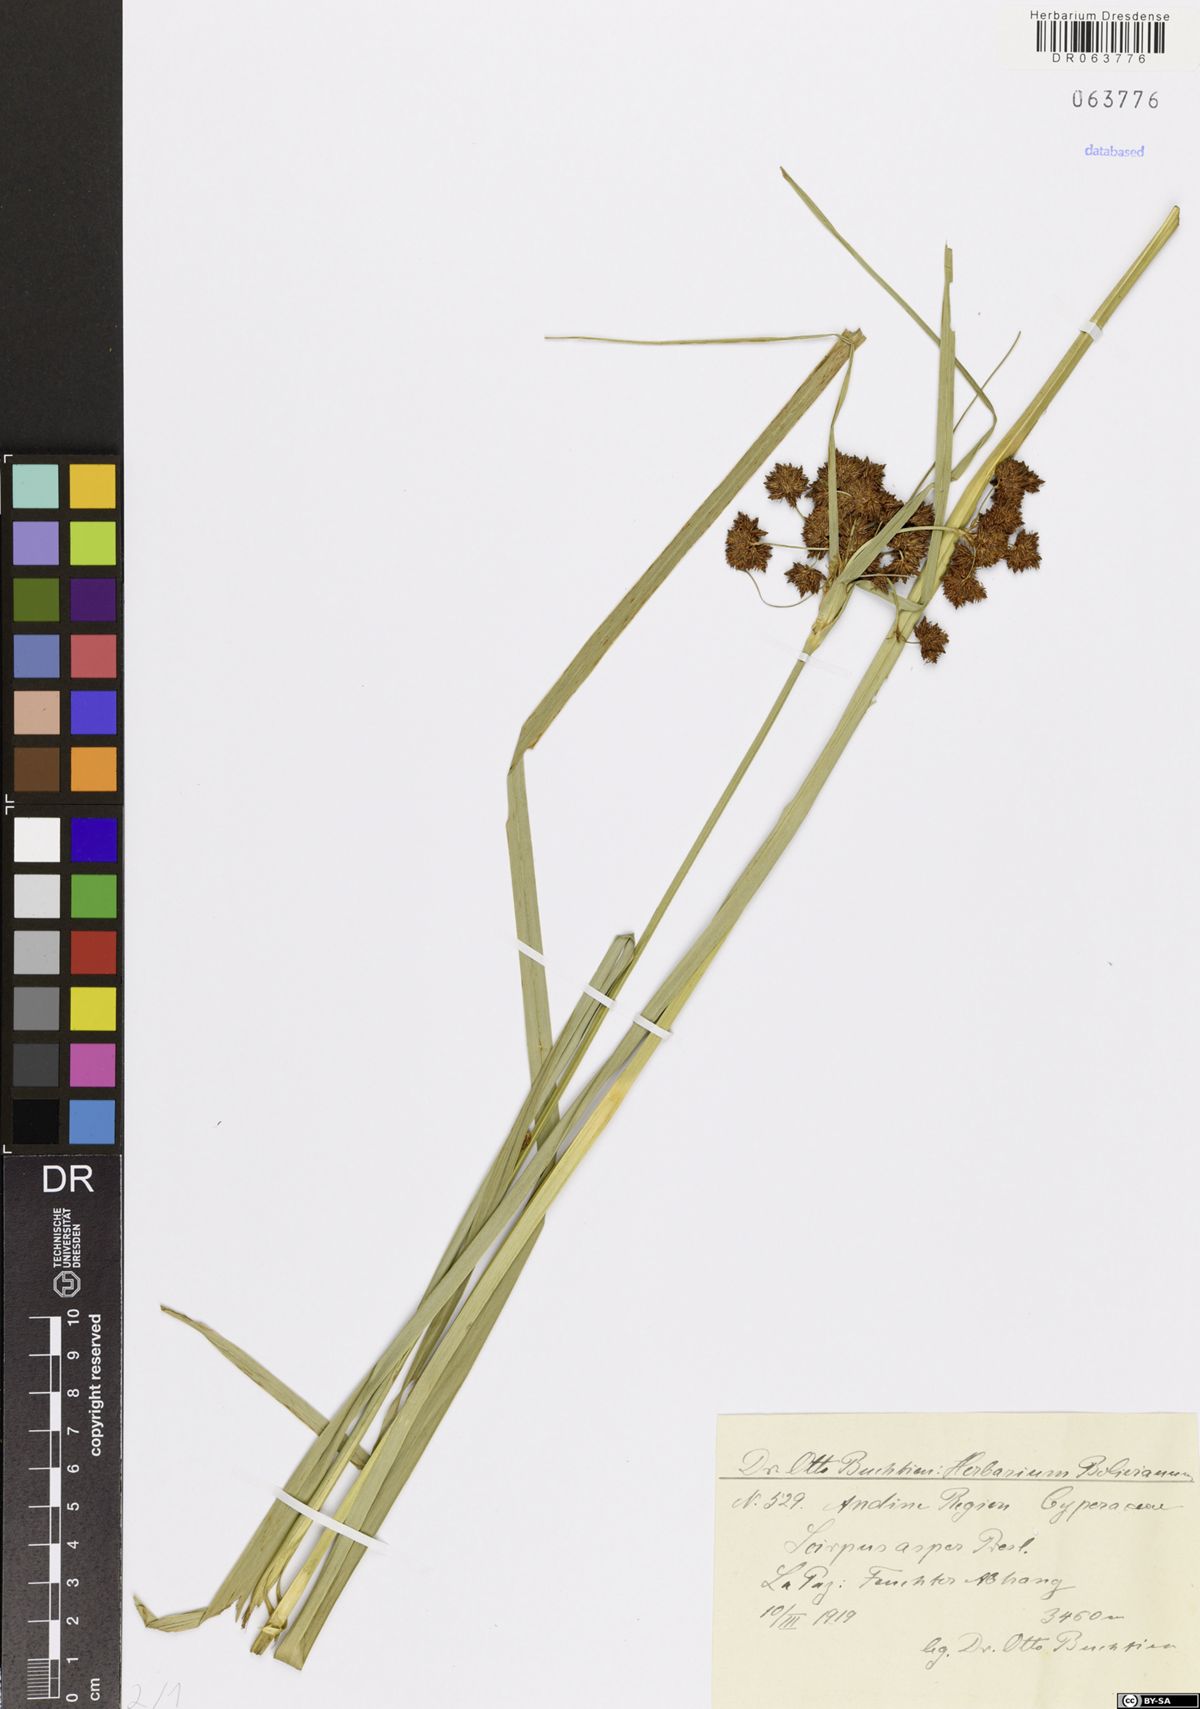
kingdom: Plantae
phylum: Tracheophyta
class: Liliopsida
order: Poales
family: Cyperaceae
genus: Rhodoscirpus
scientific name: Rhodoscirpus asper
